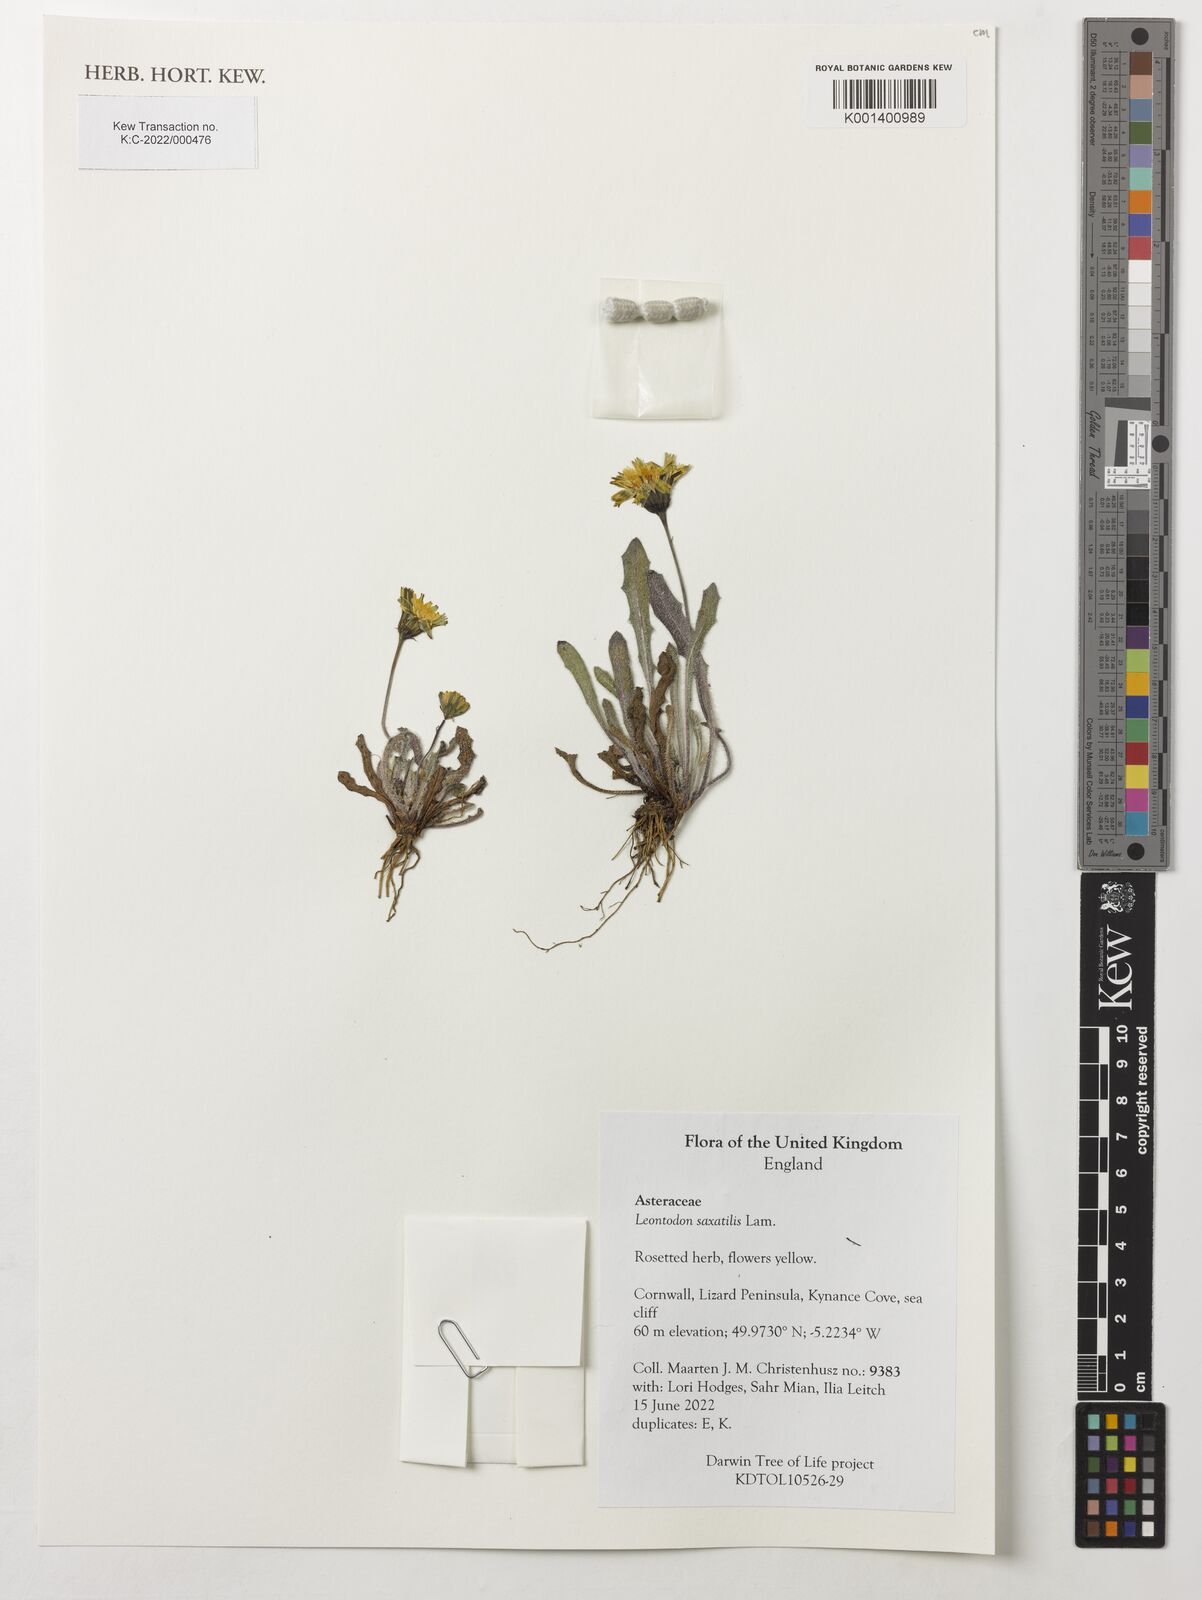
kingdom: Plantae
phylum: Tracheophyta
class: Magnoliopsida
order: Asterales
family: Asteraceae
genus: Thrincia
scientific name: Thrincia saxatilis
